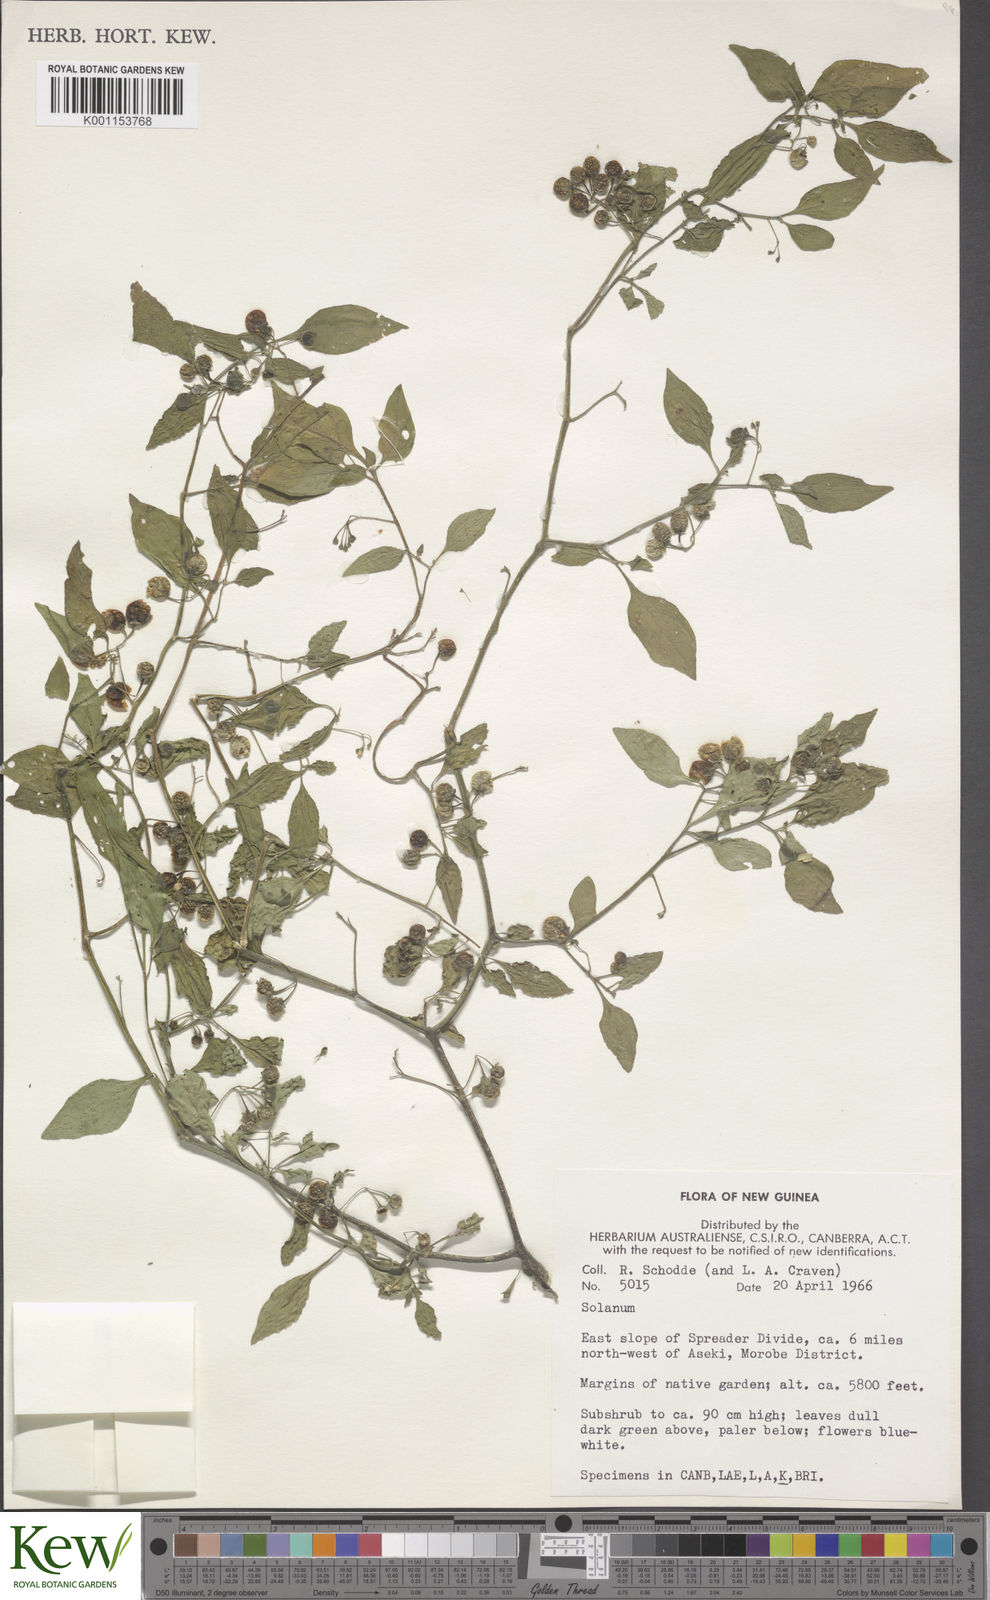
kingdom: Plantae
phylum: Tracheophyta
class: Magnoliopsida
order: Solanales
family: Solanaceae
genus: Solanum
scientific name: Solanum nigrum
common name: Black nightshade
